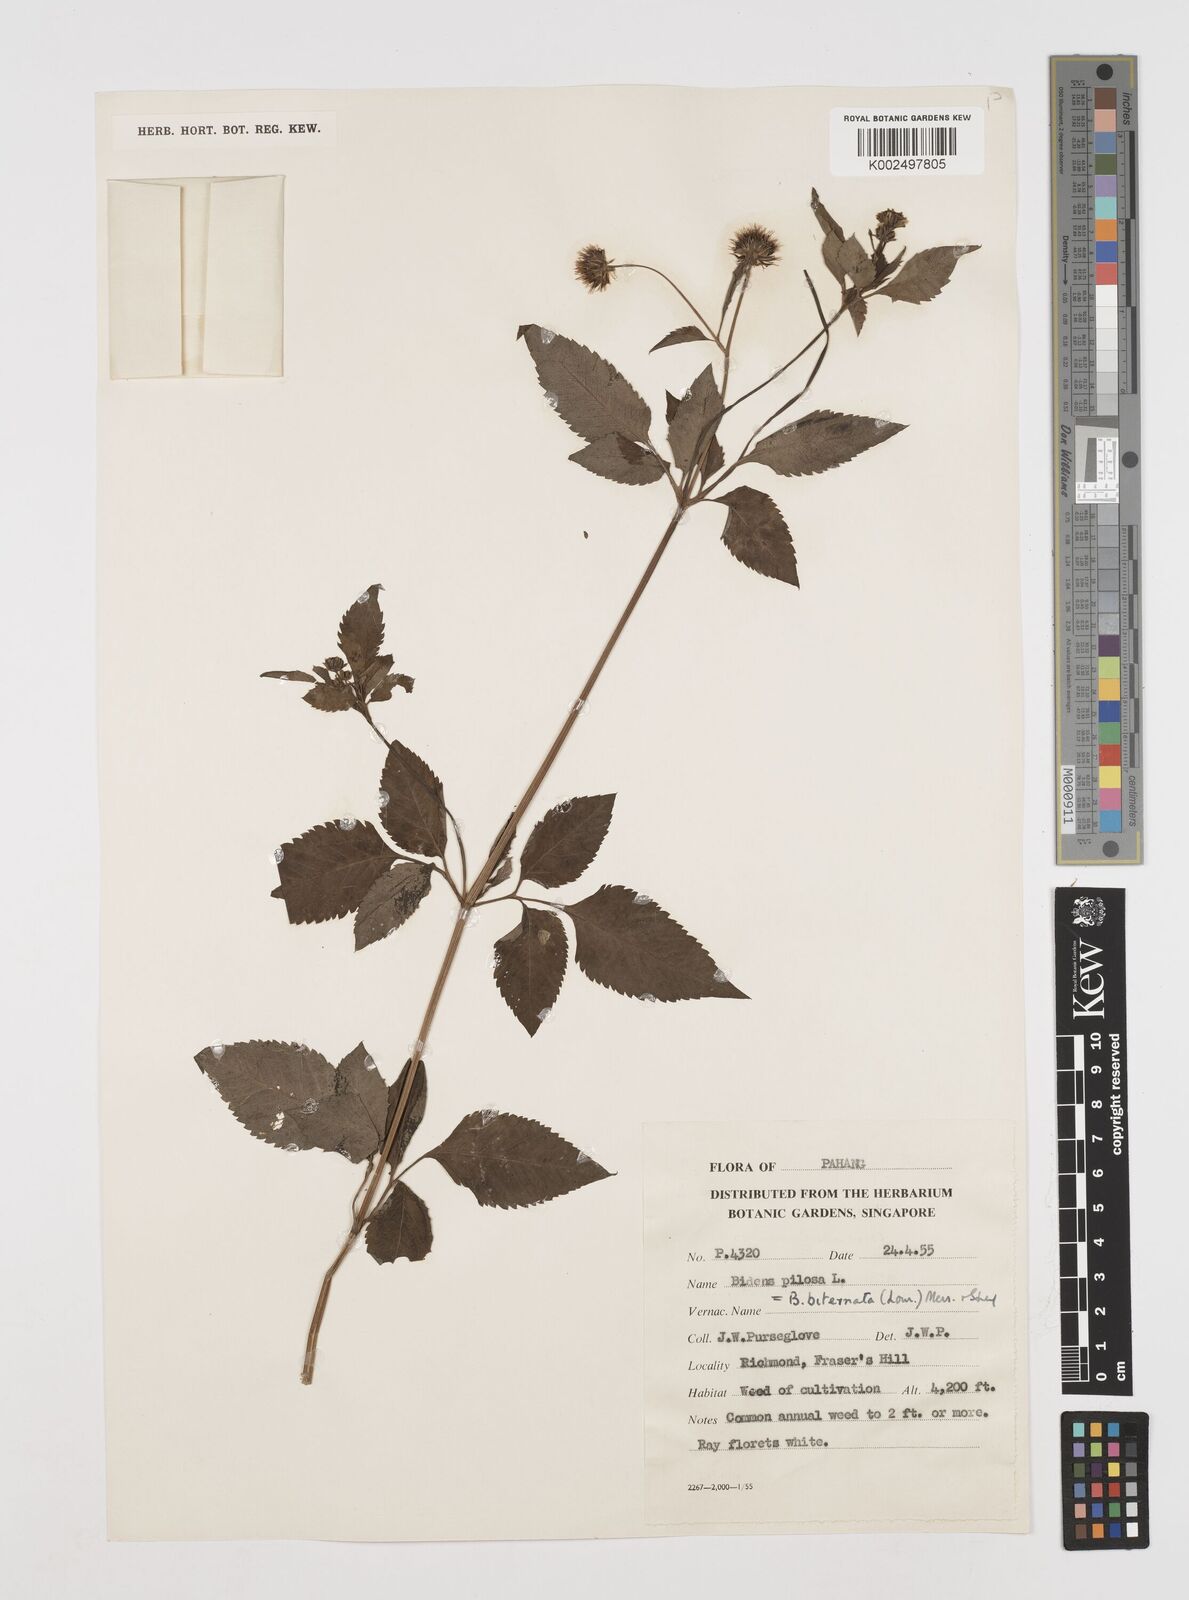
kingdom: Plantae
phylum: Tracheophyta
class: Magnoliopsida
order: Asterales
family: Asteraceae
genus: Bidens
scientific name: Bidens pilosa
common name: Black-jack
